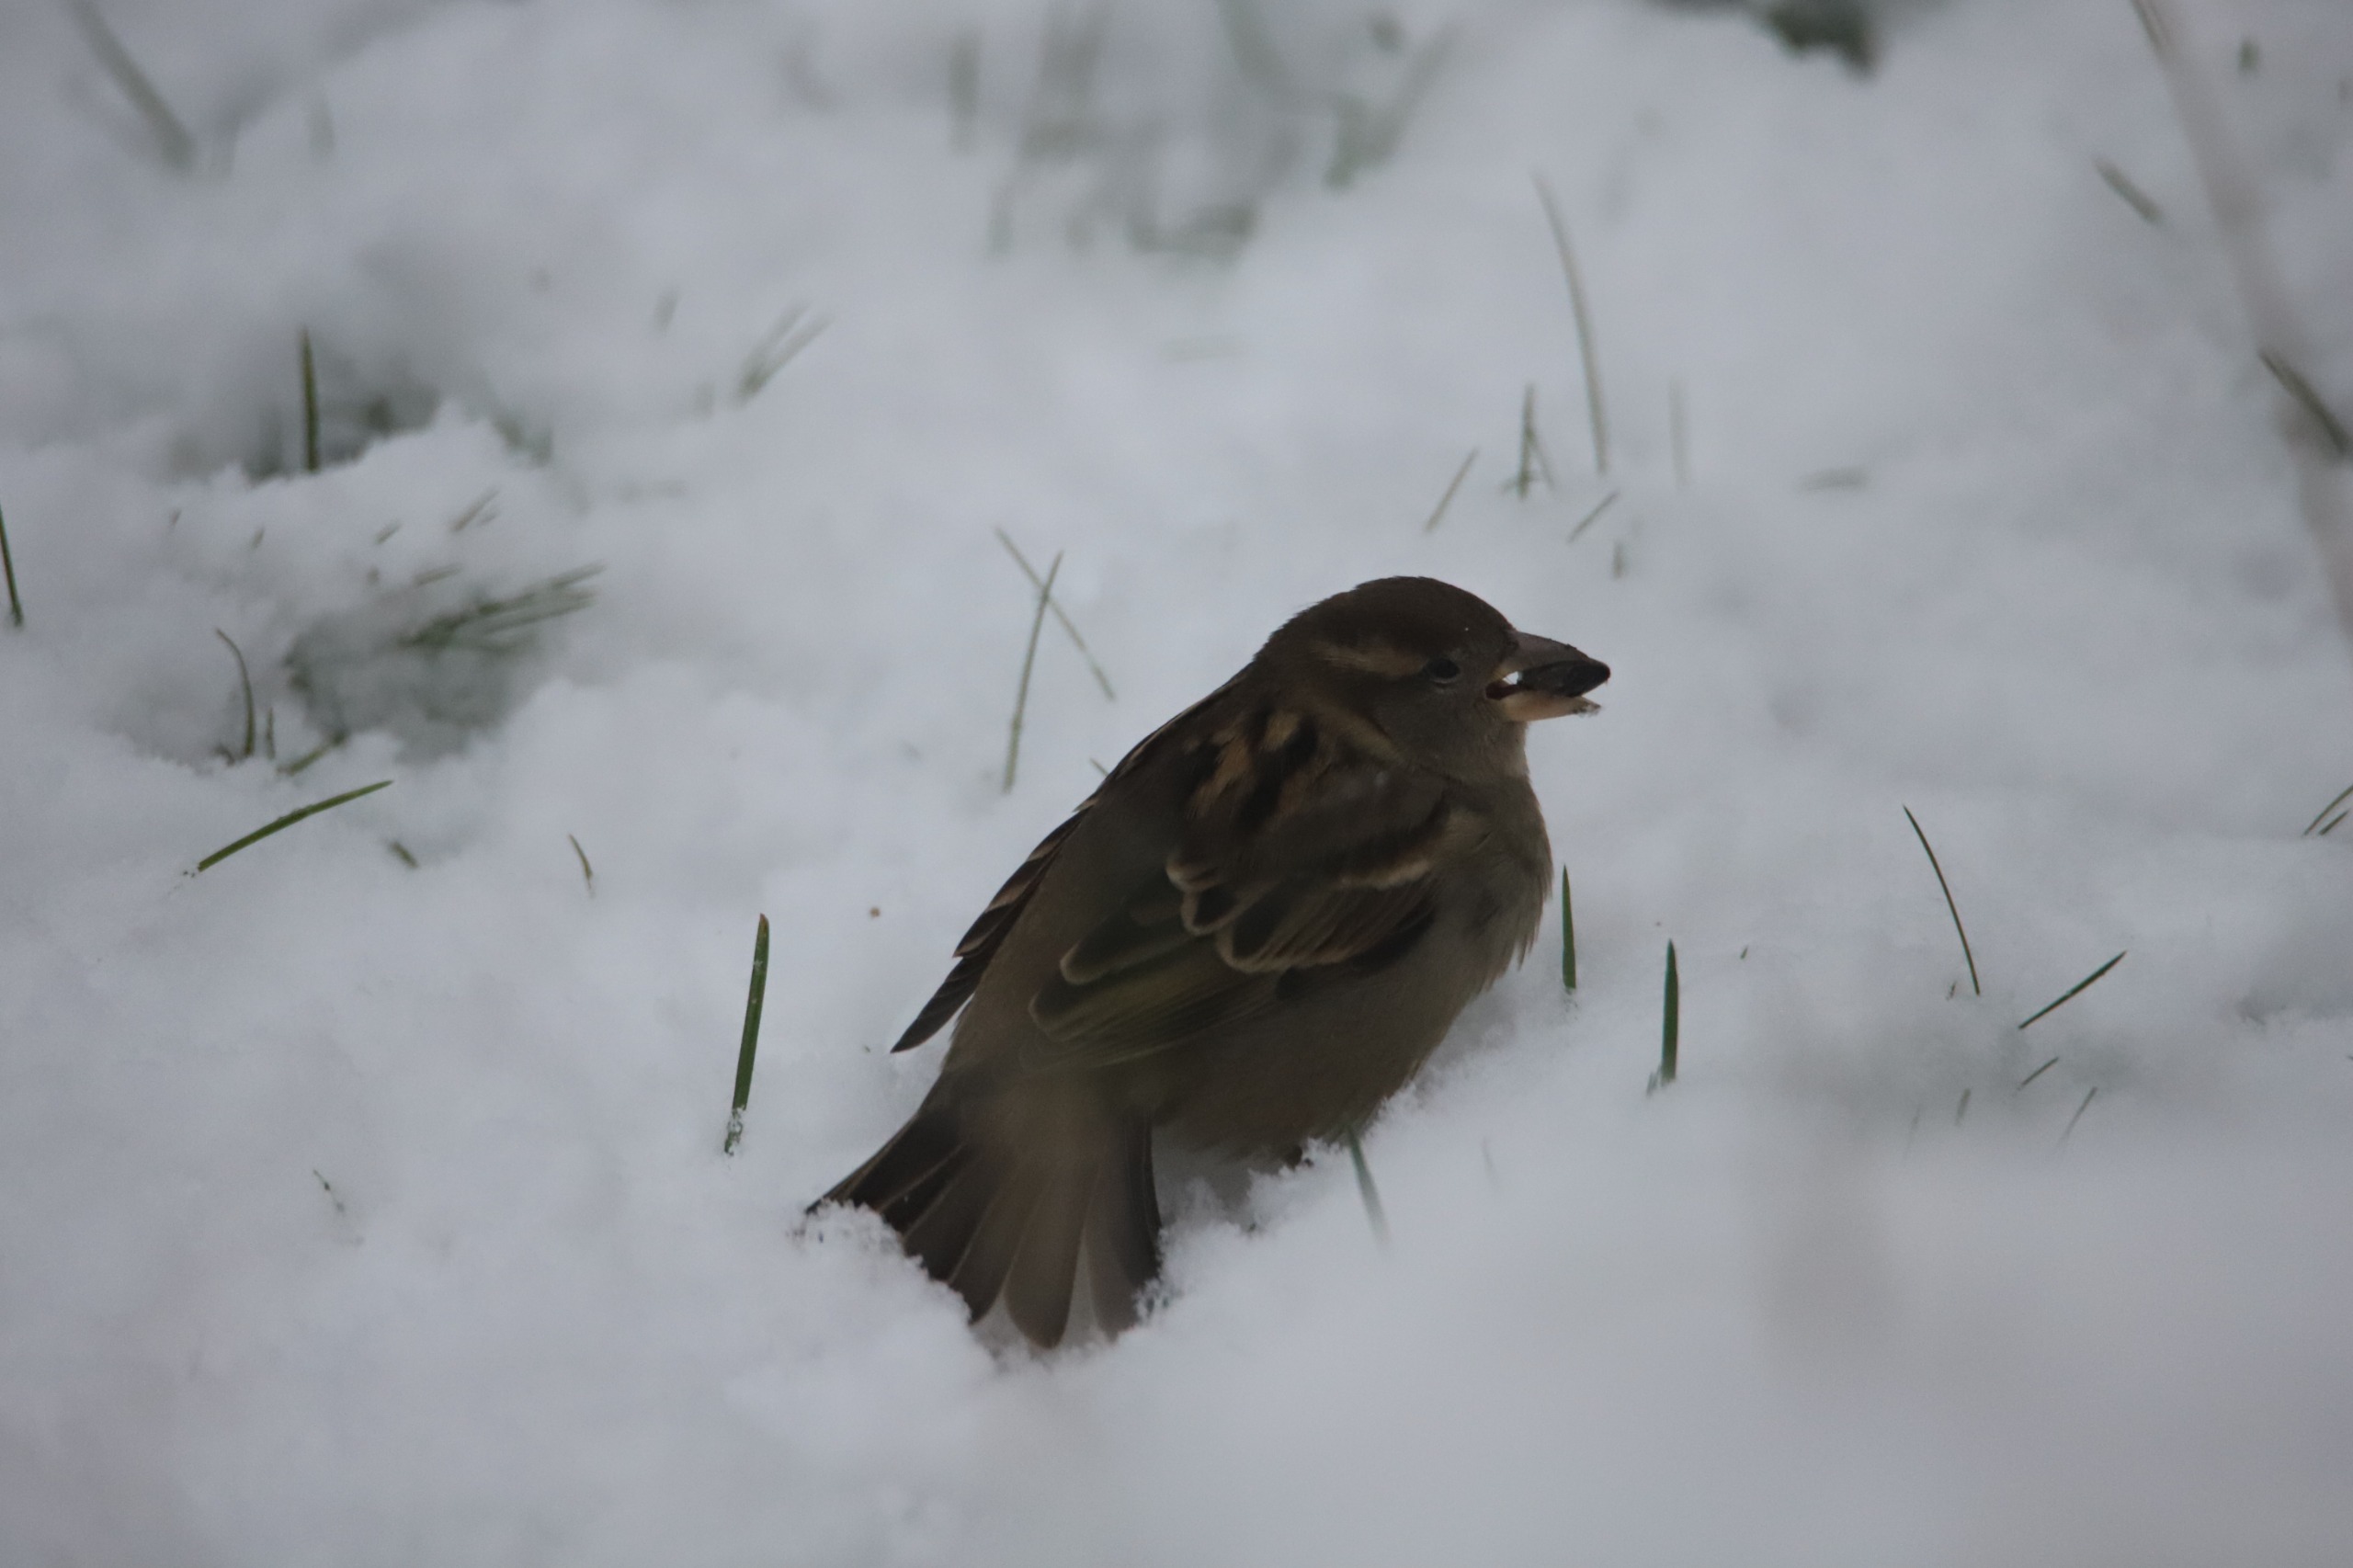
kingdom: Animalia
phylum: Chordata
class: Aves
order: Passeriformes
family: Passeridae
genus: Passer
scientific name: Passer domesticus
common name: Gråspurv
